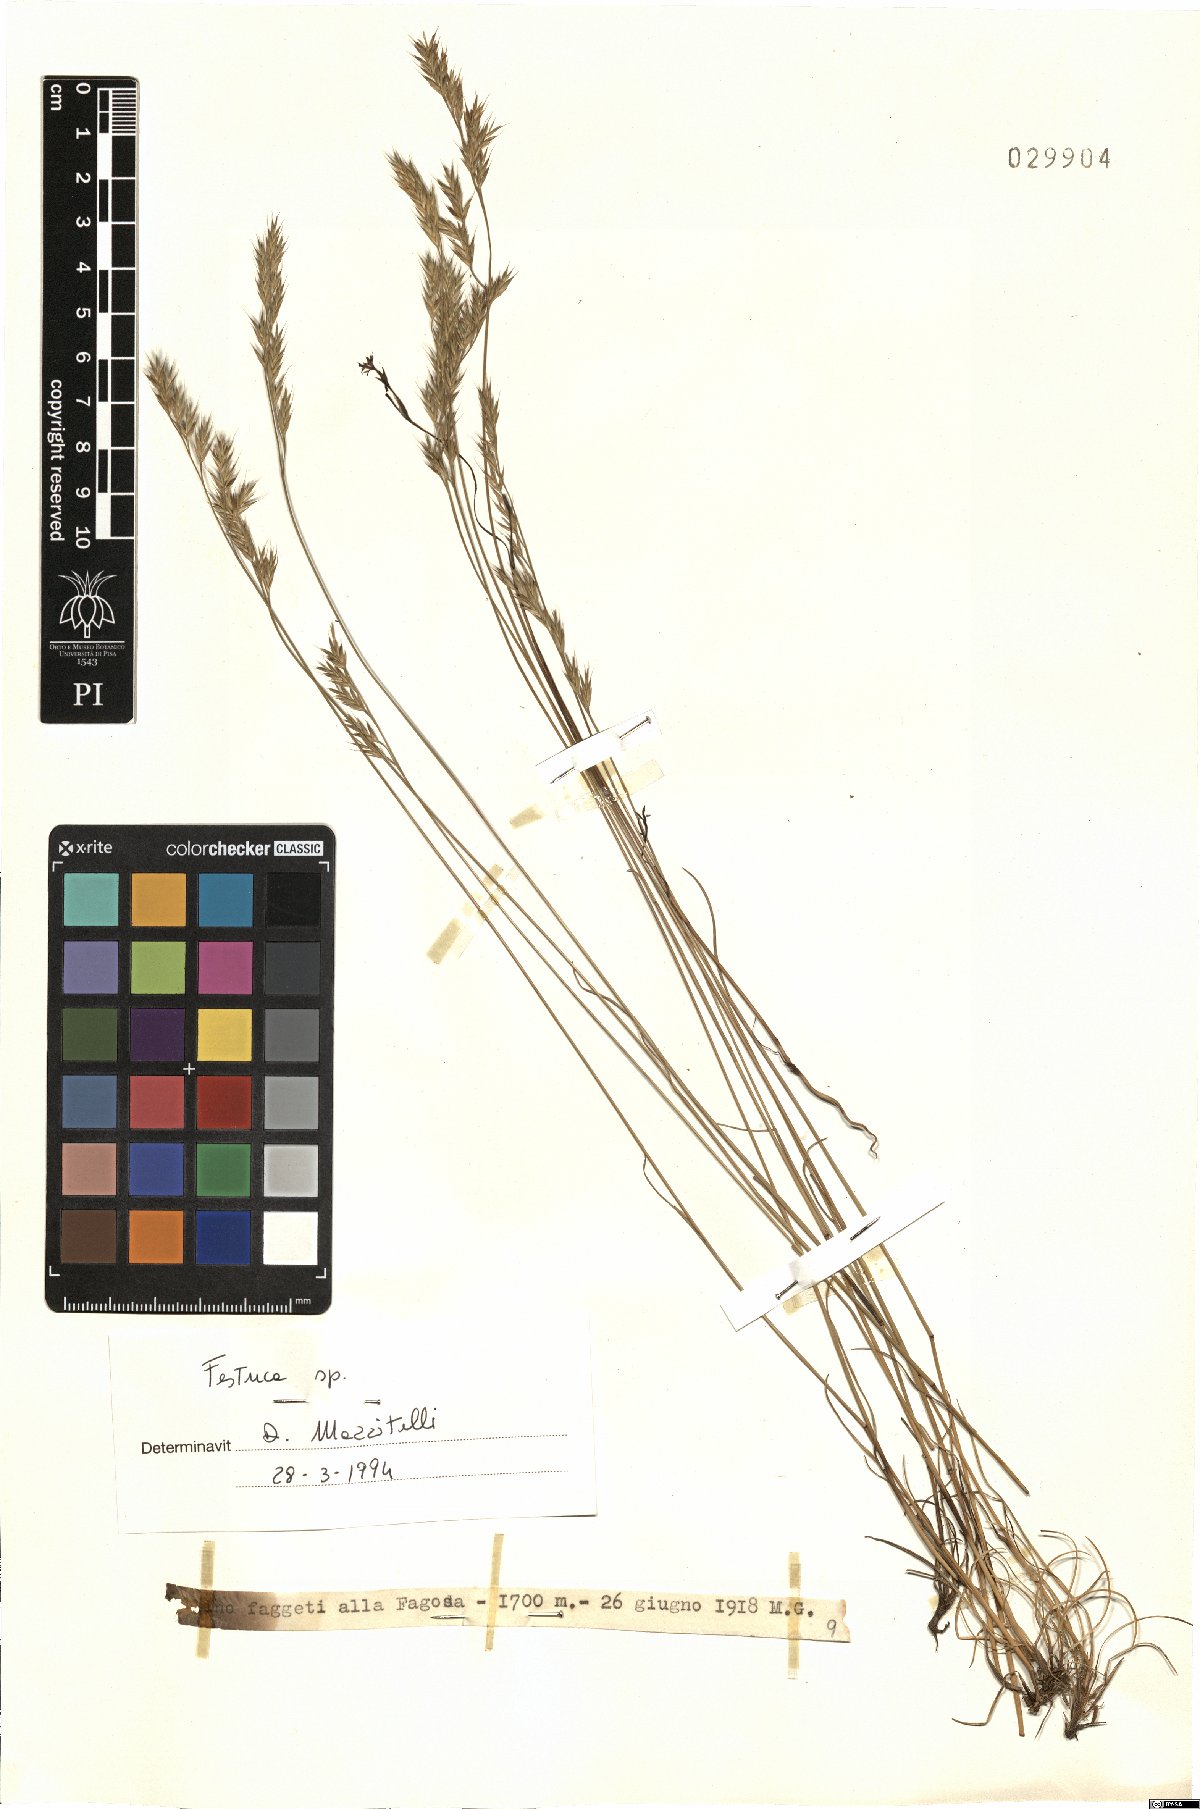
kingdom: Plantae
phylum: Tracheophyta
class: Liliopsida
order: Poales
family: Poaceae
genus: Festuca
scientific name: Festuca
